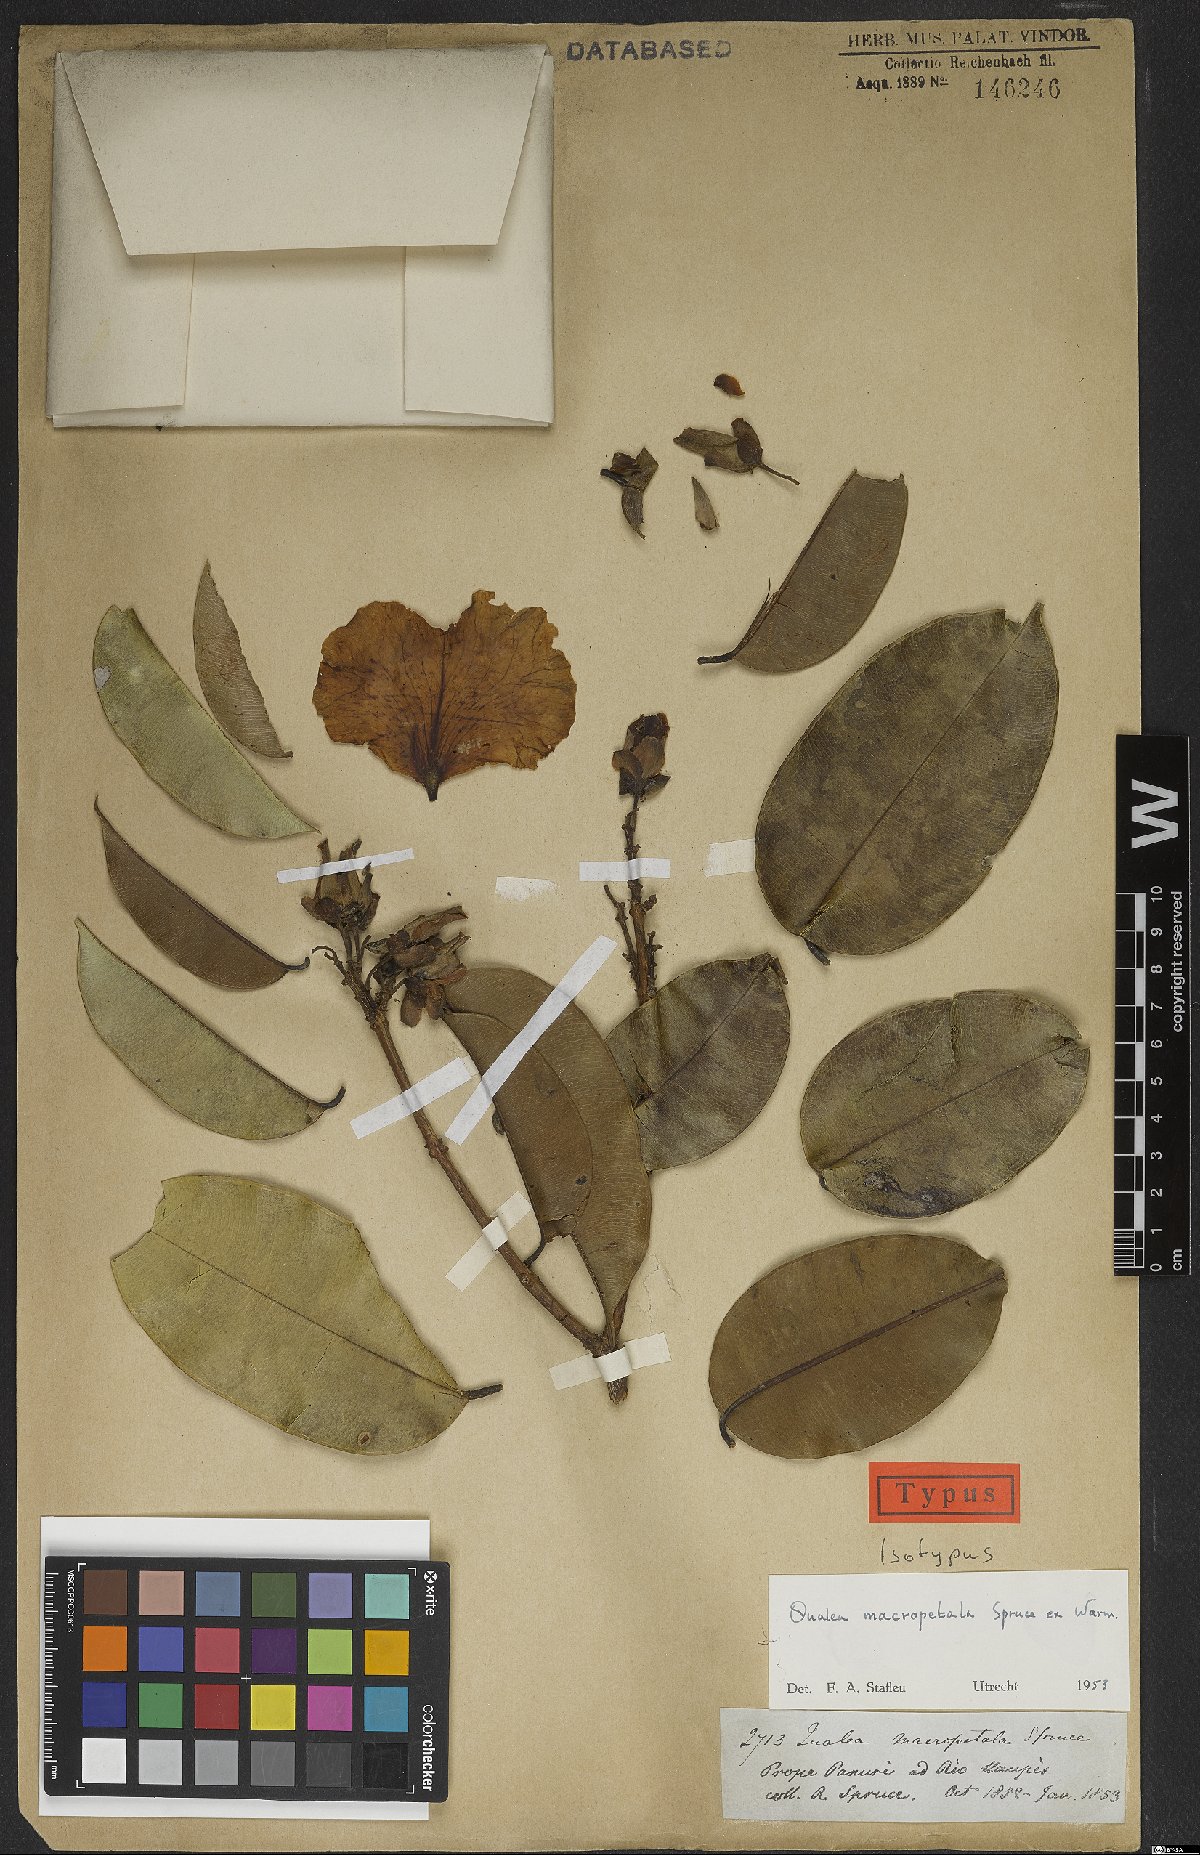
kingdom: Plantae
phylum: Tracheophyta
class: Magnoliopsida
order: Myrtales
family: Vochysiaceae
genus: Qualea
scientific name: Qualea macropetala
